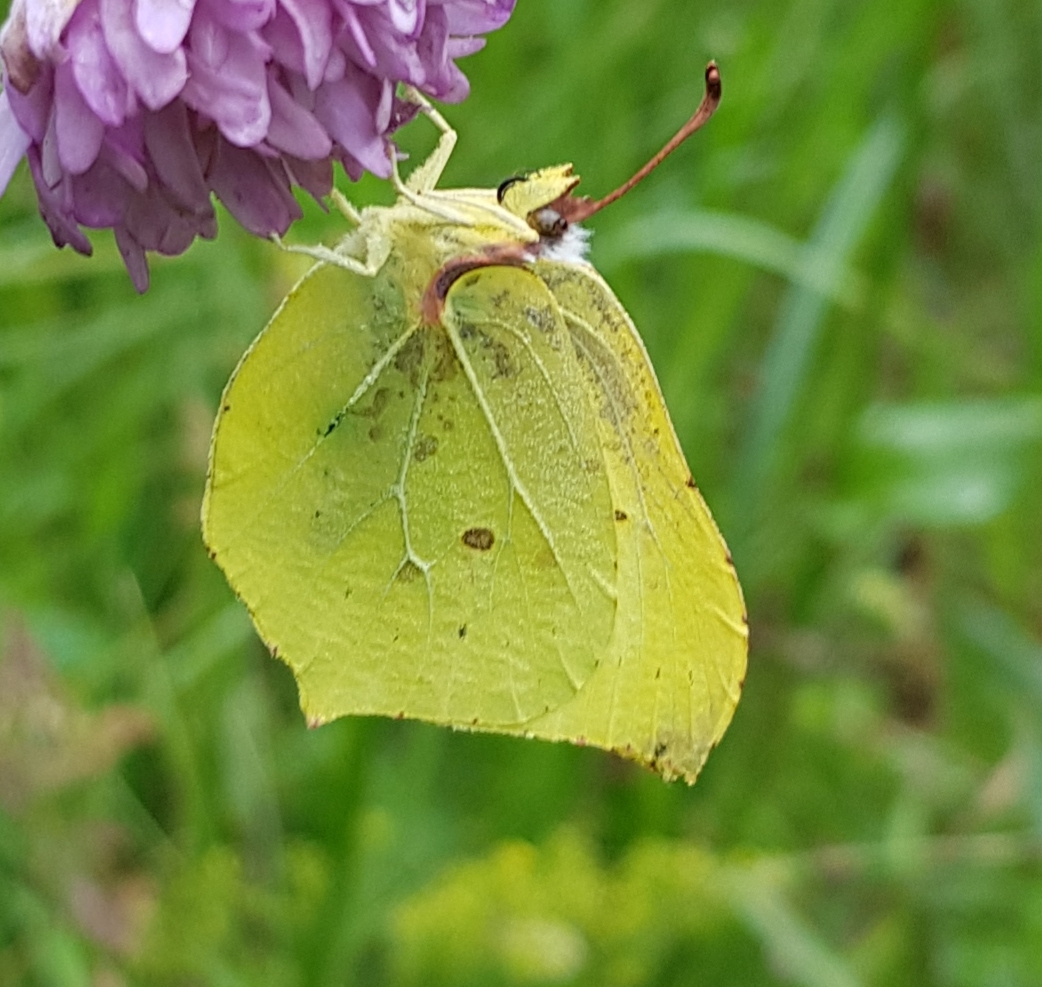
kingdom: Animalia
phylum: Arthropoda
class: Insecta
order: Lepidoptera
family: Pieridae
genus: Gonepteryx
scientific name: Gonepteryx rhamni
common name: Citronsommerfugl
